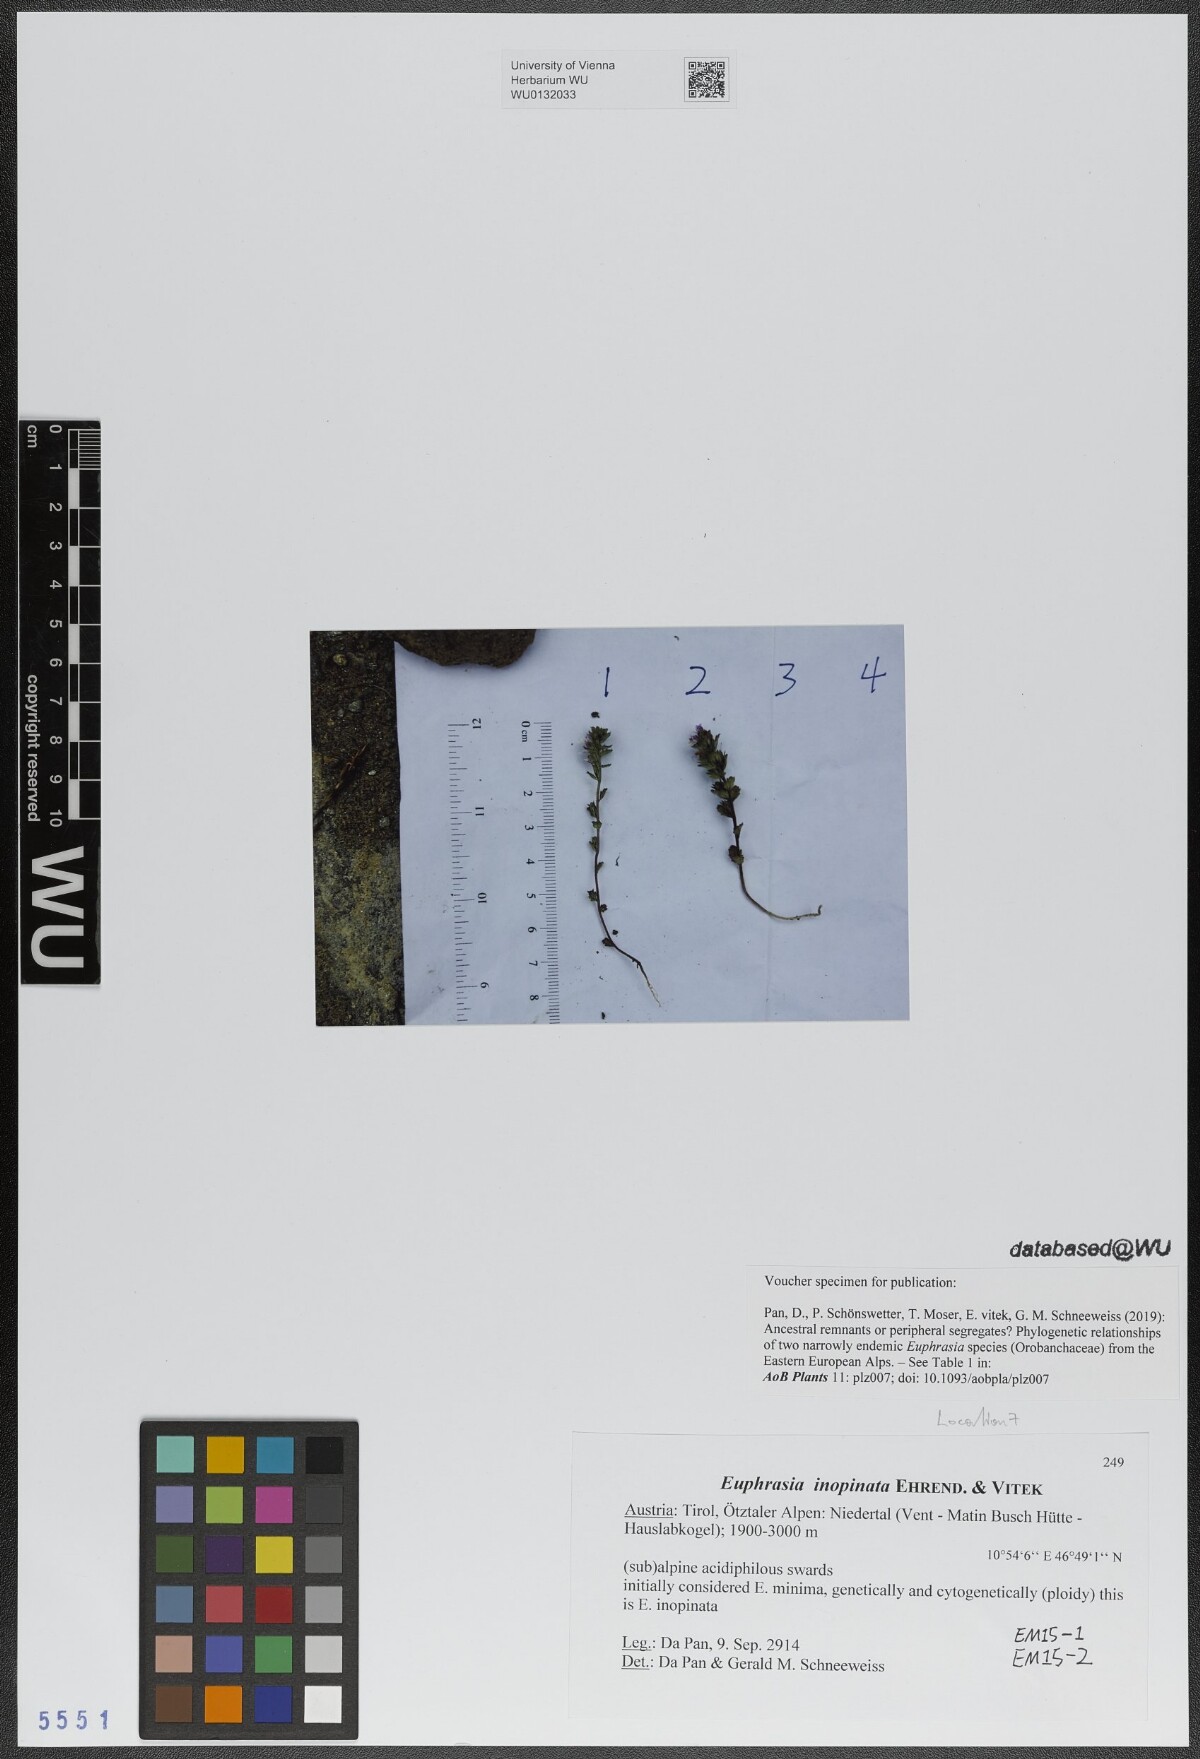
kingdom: Plantae
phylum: Tracheophyta
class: Magnoliopsida
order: Lamiales
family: Orobanchaceae
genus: Euphrasia
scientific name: Euphrasia inopinata
